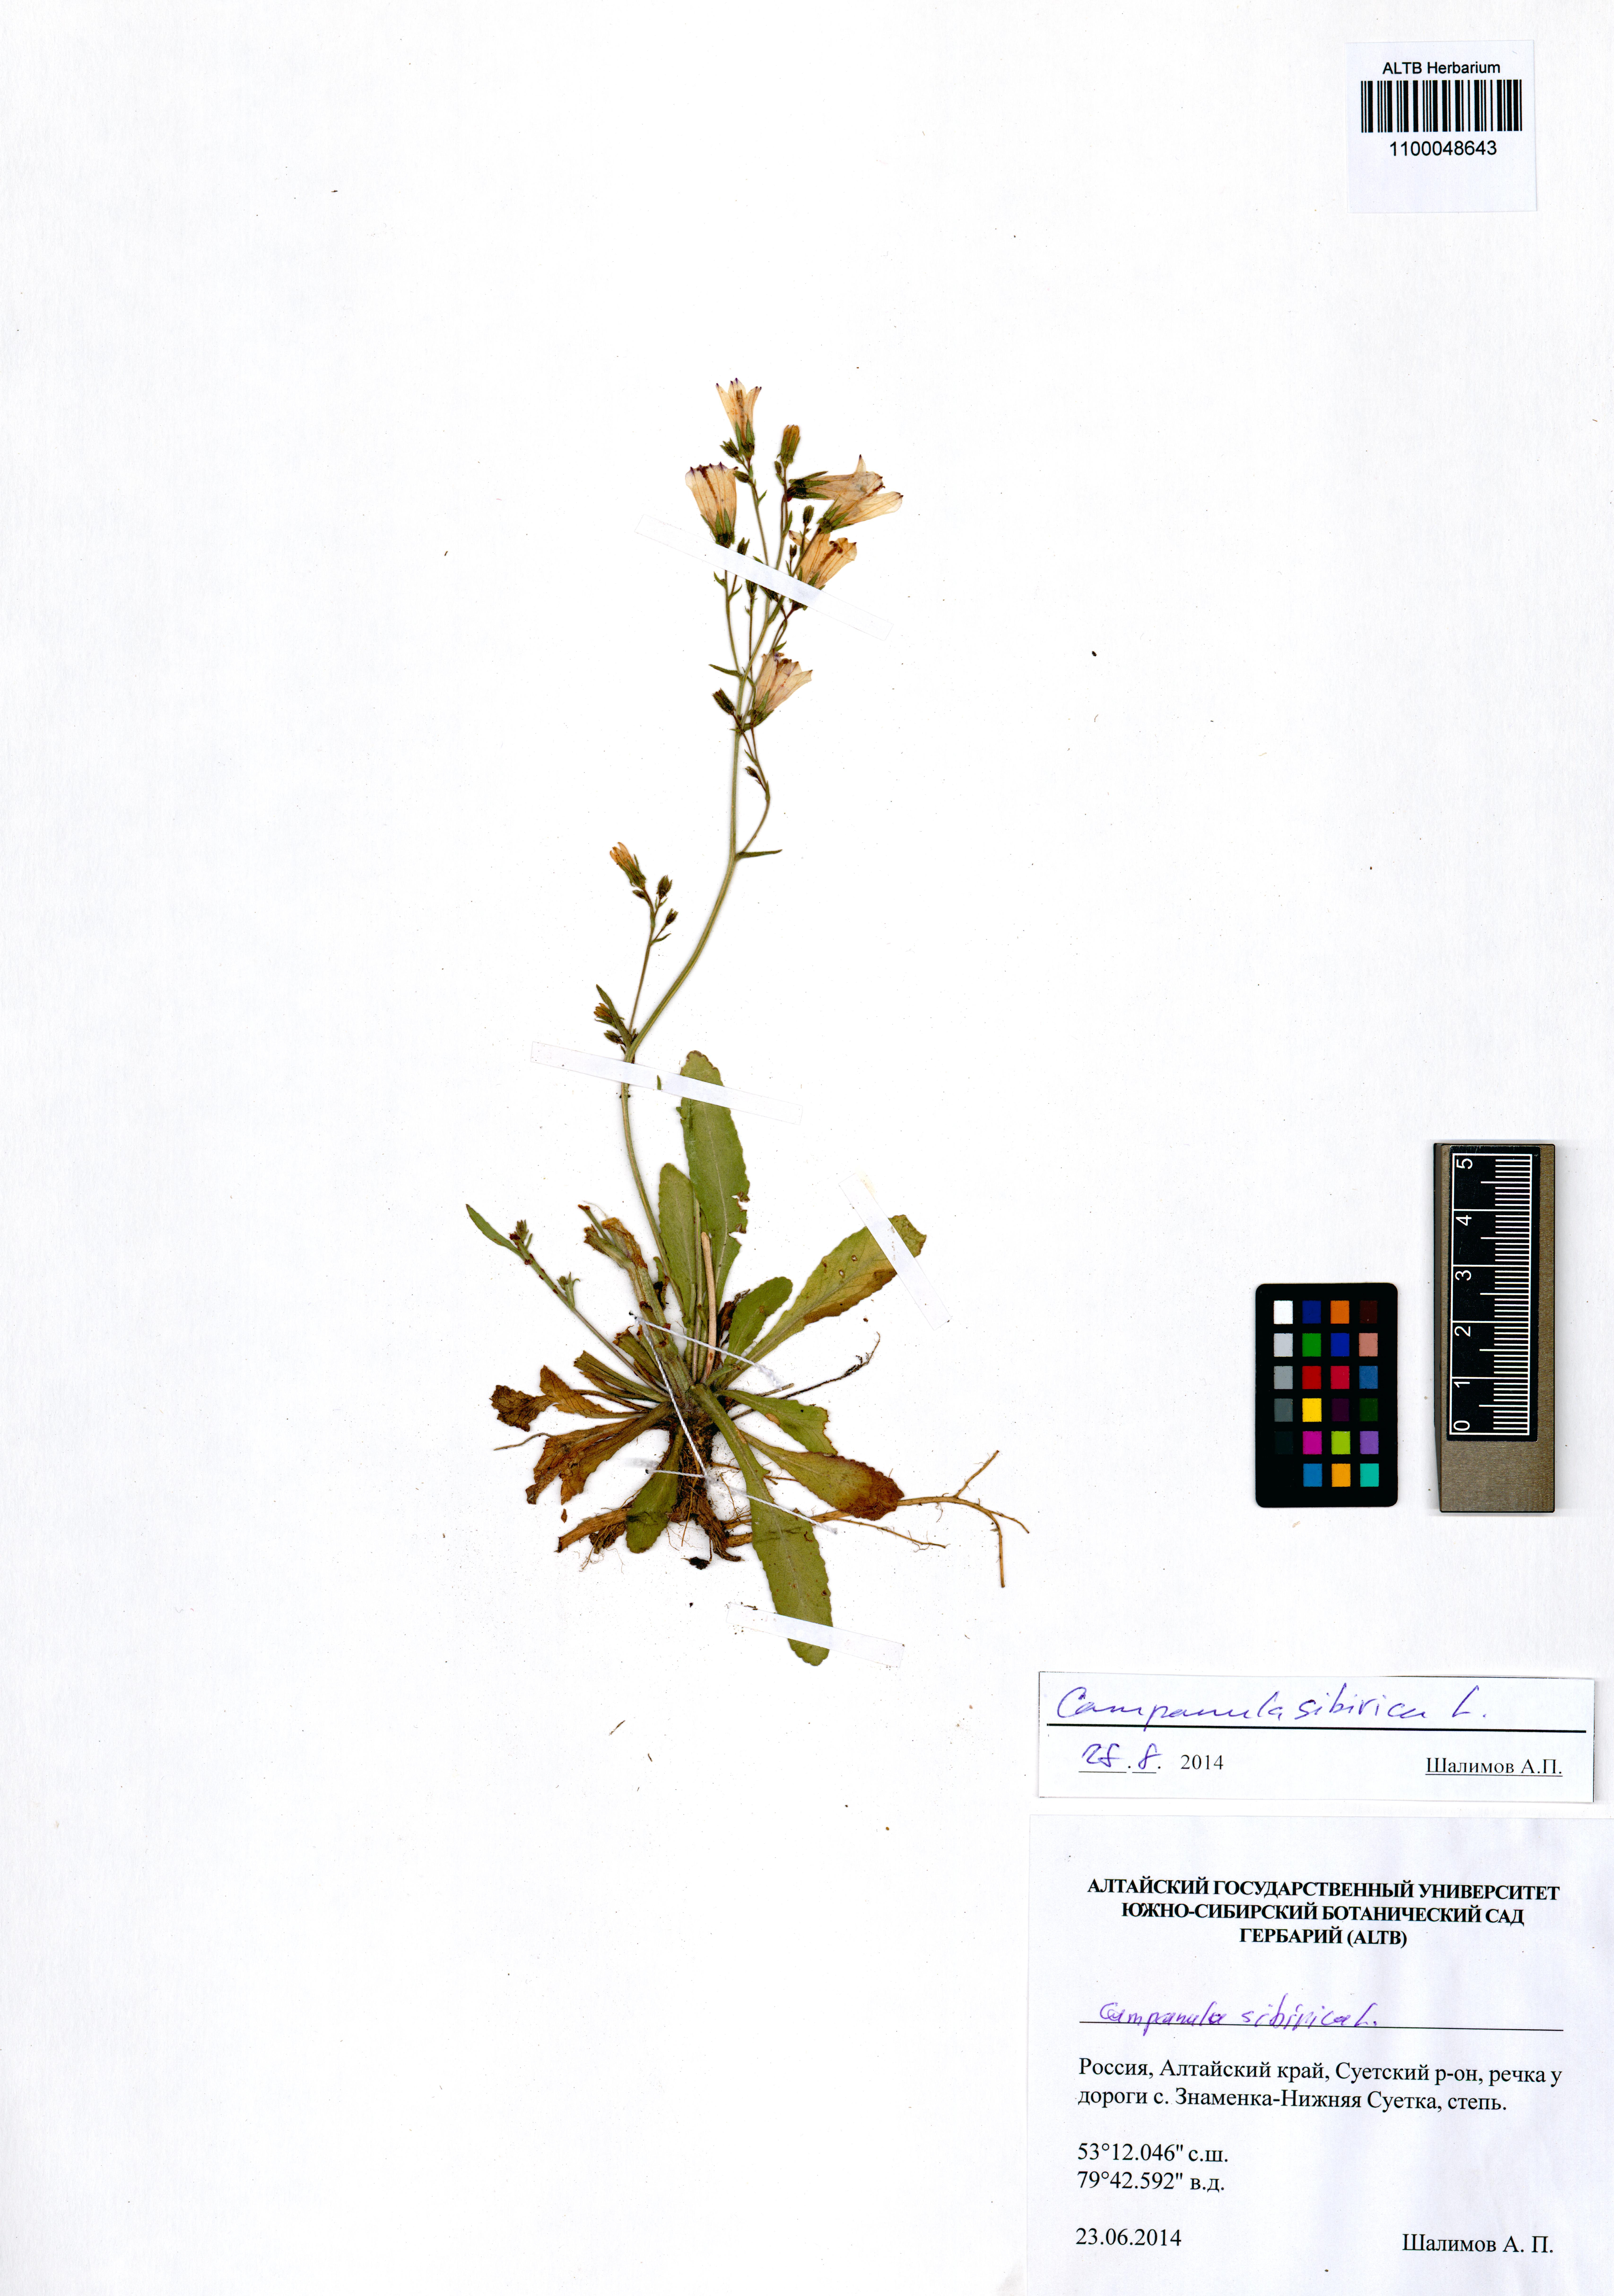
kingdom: Plantae
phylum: Tracheophyta
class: Magnoliopsida
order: Asterales
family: Campanulaceae
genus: Campanula
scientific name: Campanula sibirica
